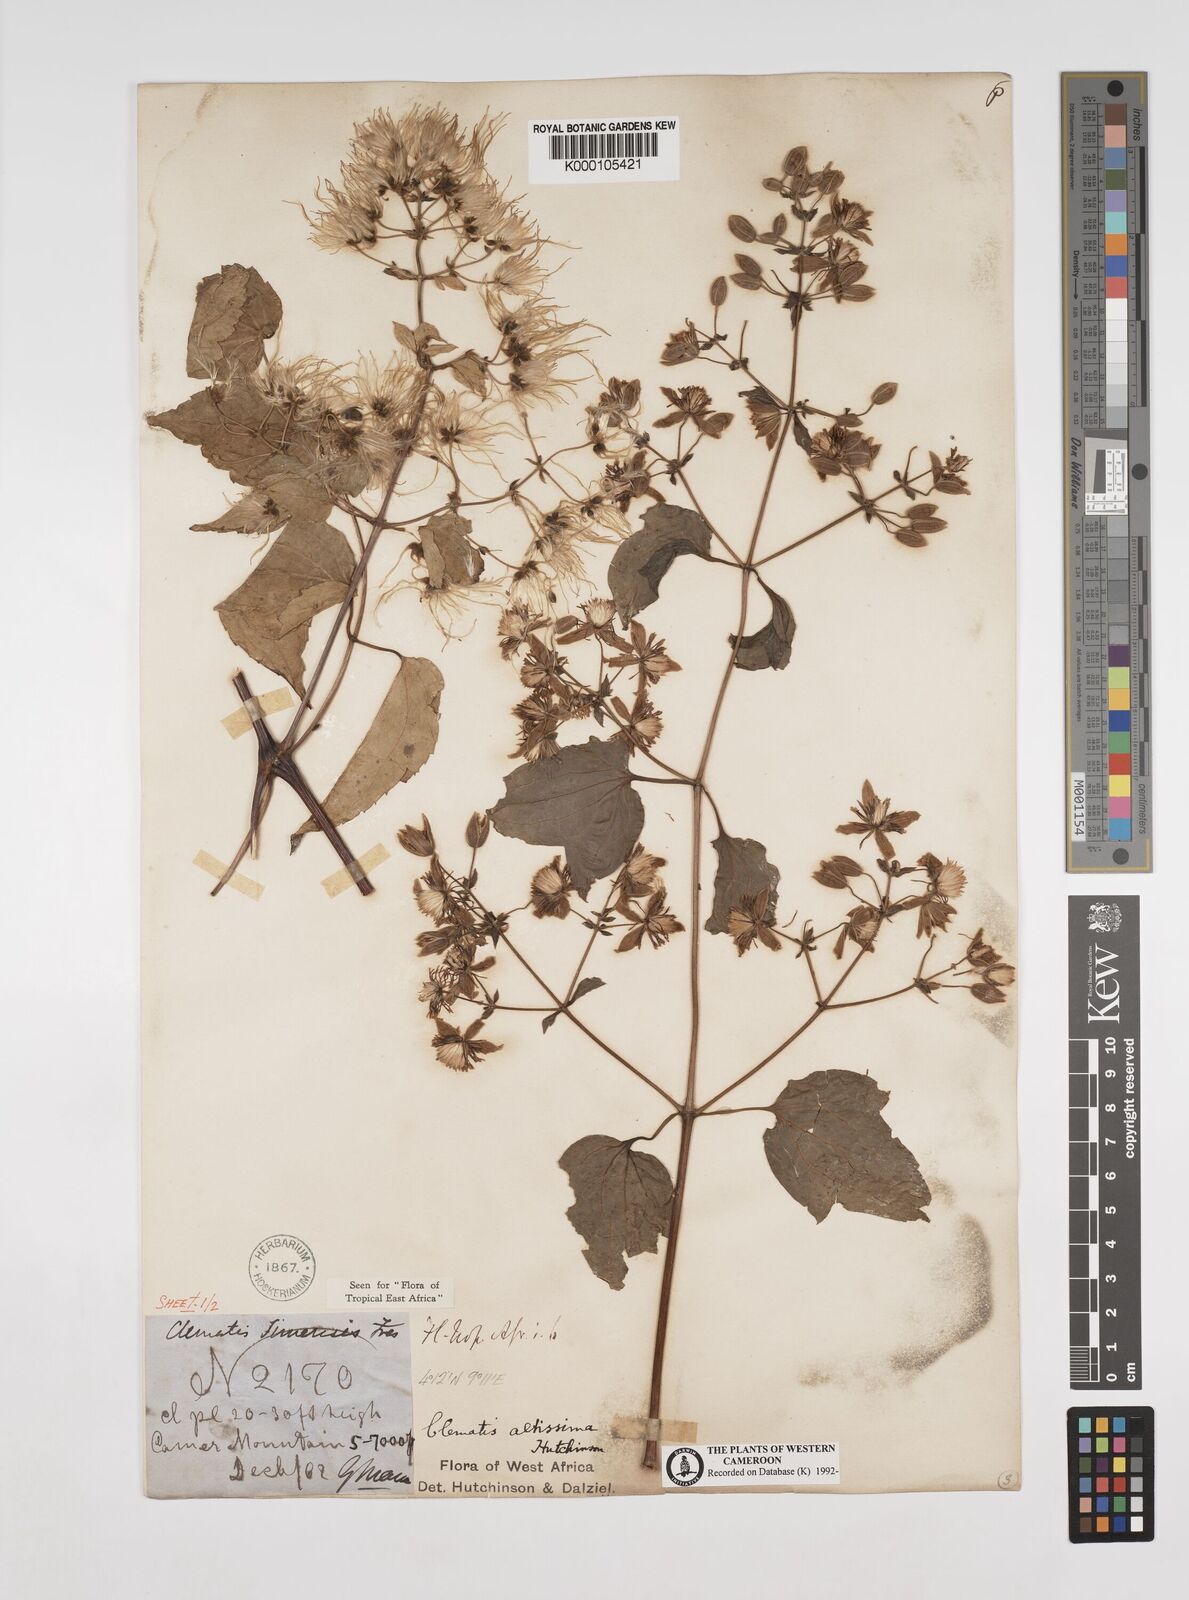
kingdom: Plantae
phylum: Tracheophyta
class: Magnoliopsida
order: Ranunculales
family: Ranunculaceae
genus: Clematis
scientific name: Clematis simensis
